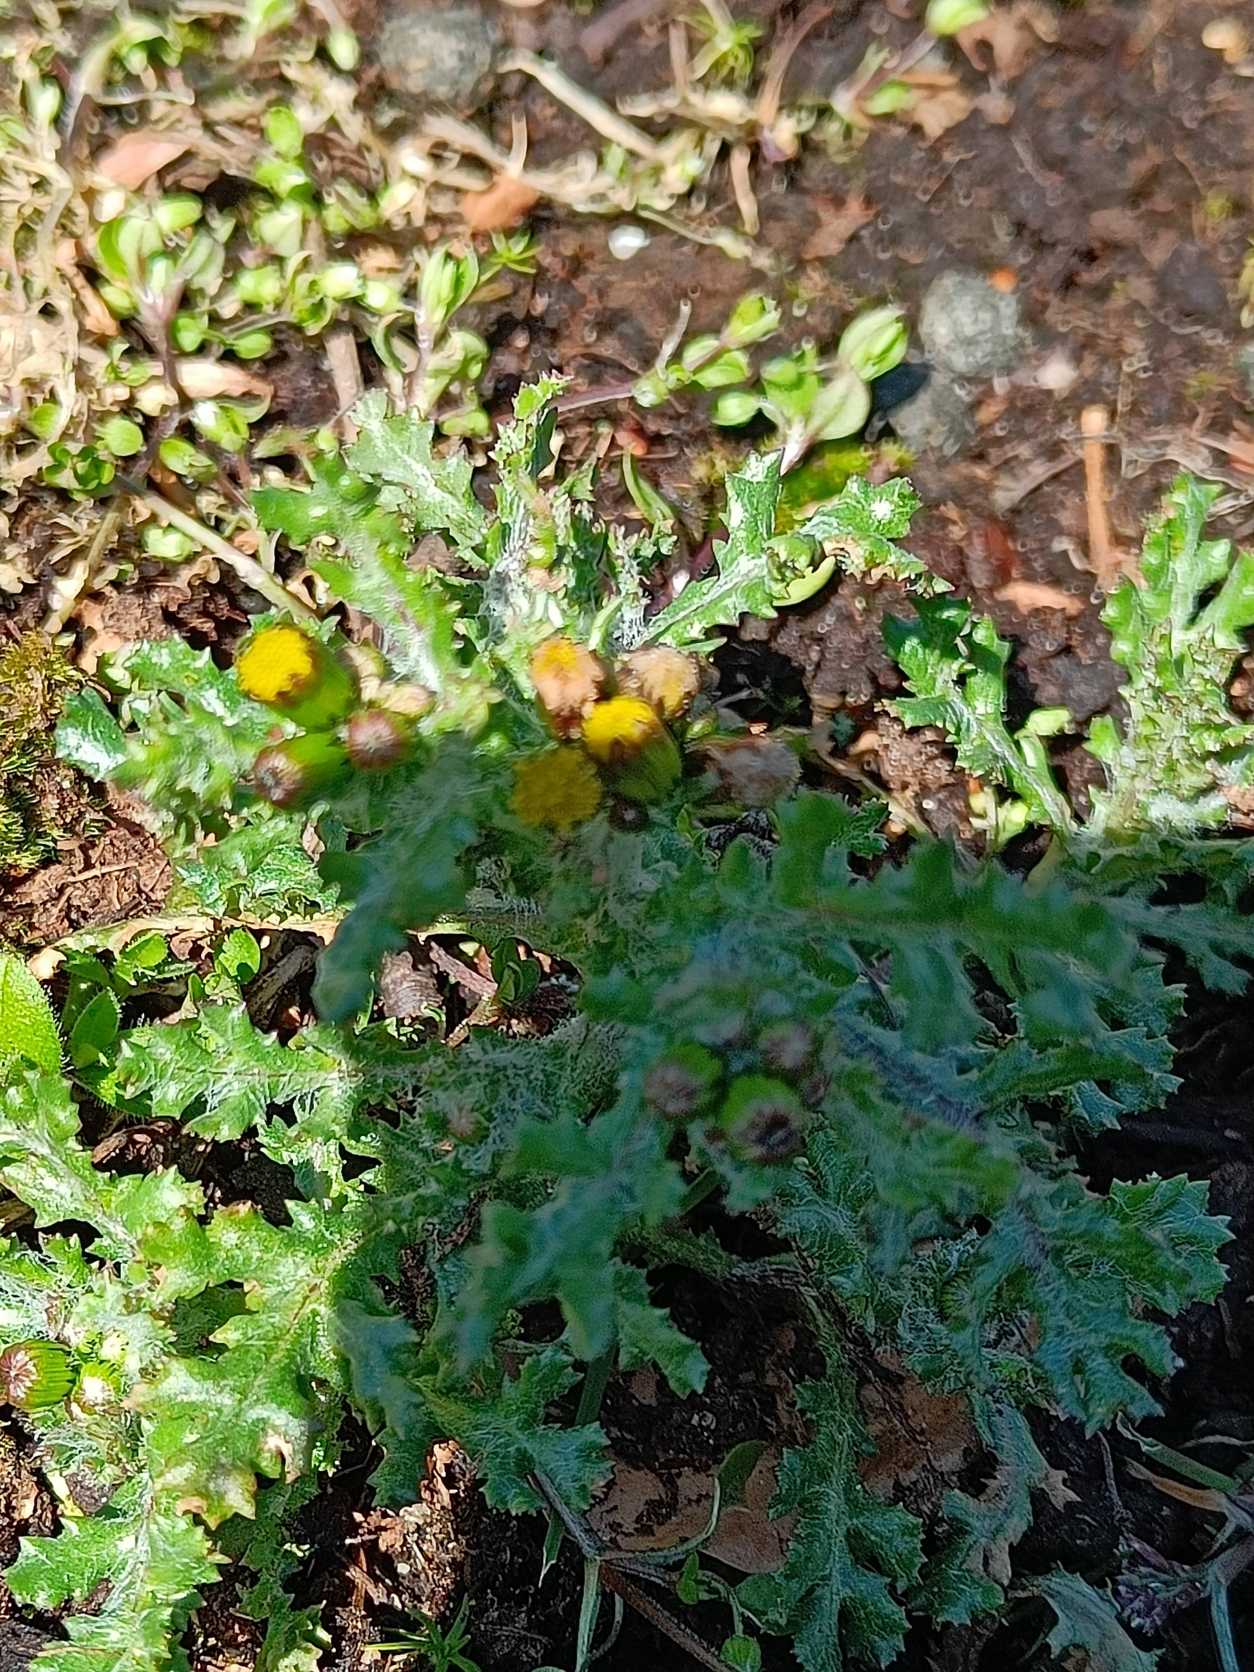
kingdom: Plantae
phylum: Tracheophyta
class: Magnoliopsida
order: Asterales
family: Asteraceae
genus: Senecio
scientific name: Senecio vulgaris
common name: Almindelig brandbæger
